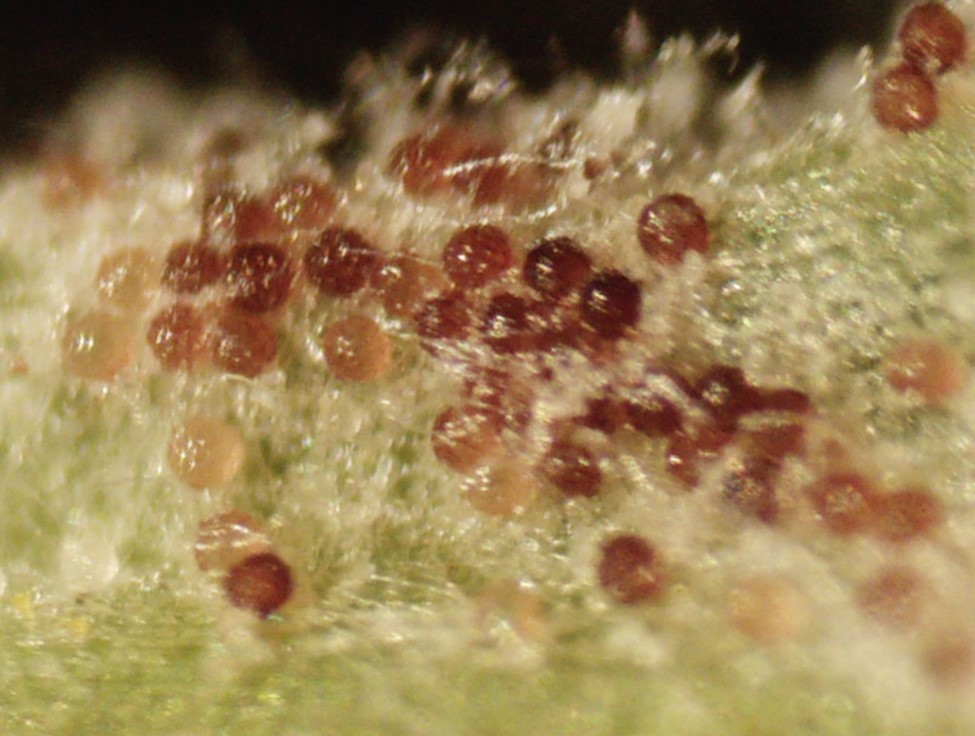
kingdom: Fungi
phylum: Ascomycota
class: Leotiomycetes
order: Helotiales
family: Erysiphaceae
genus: Podosphaera
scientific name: Podosphaera erigerontis-canadensis
